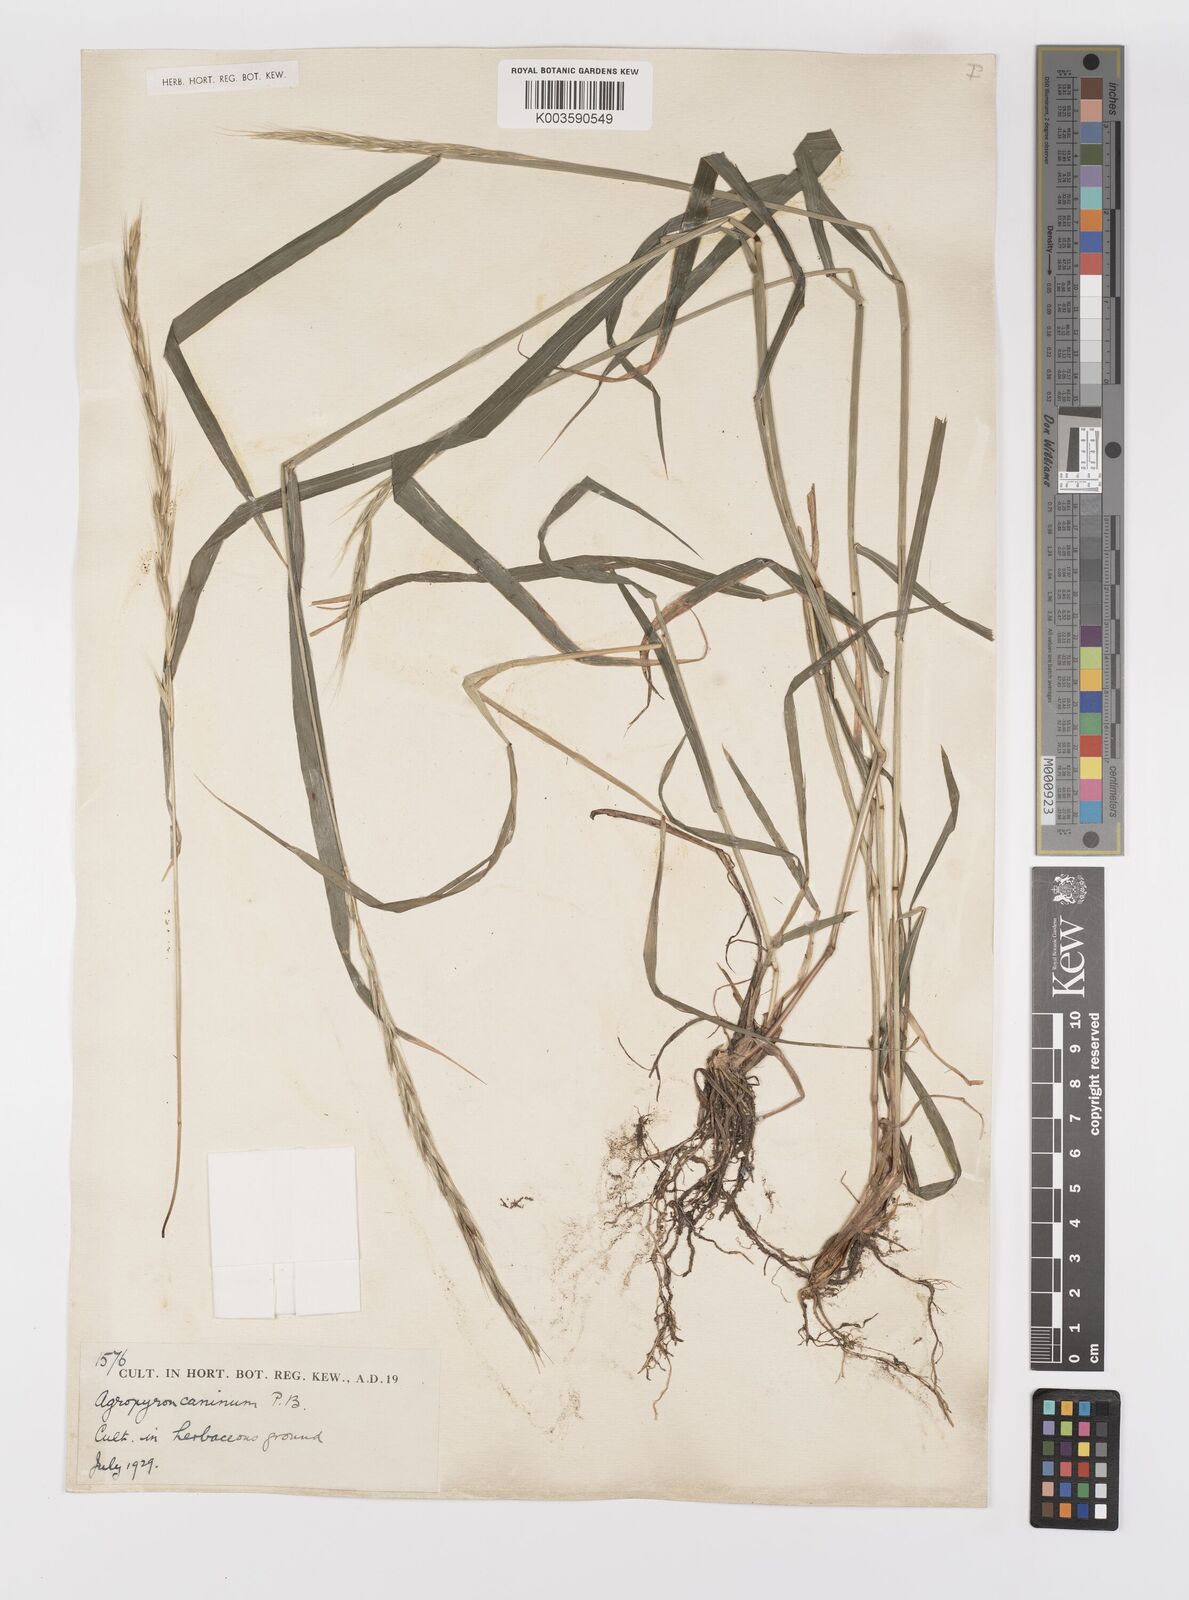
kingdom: Plantae
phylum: Tracheophyta
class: Liliopsida
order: Poales
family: Poaceae
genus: Elymus
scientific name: Elymus caninus
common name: Bearded couch
